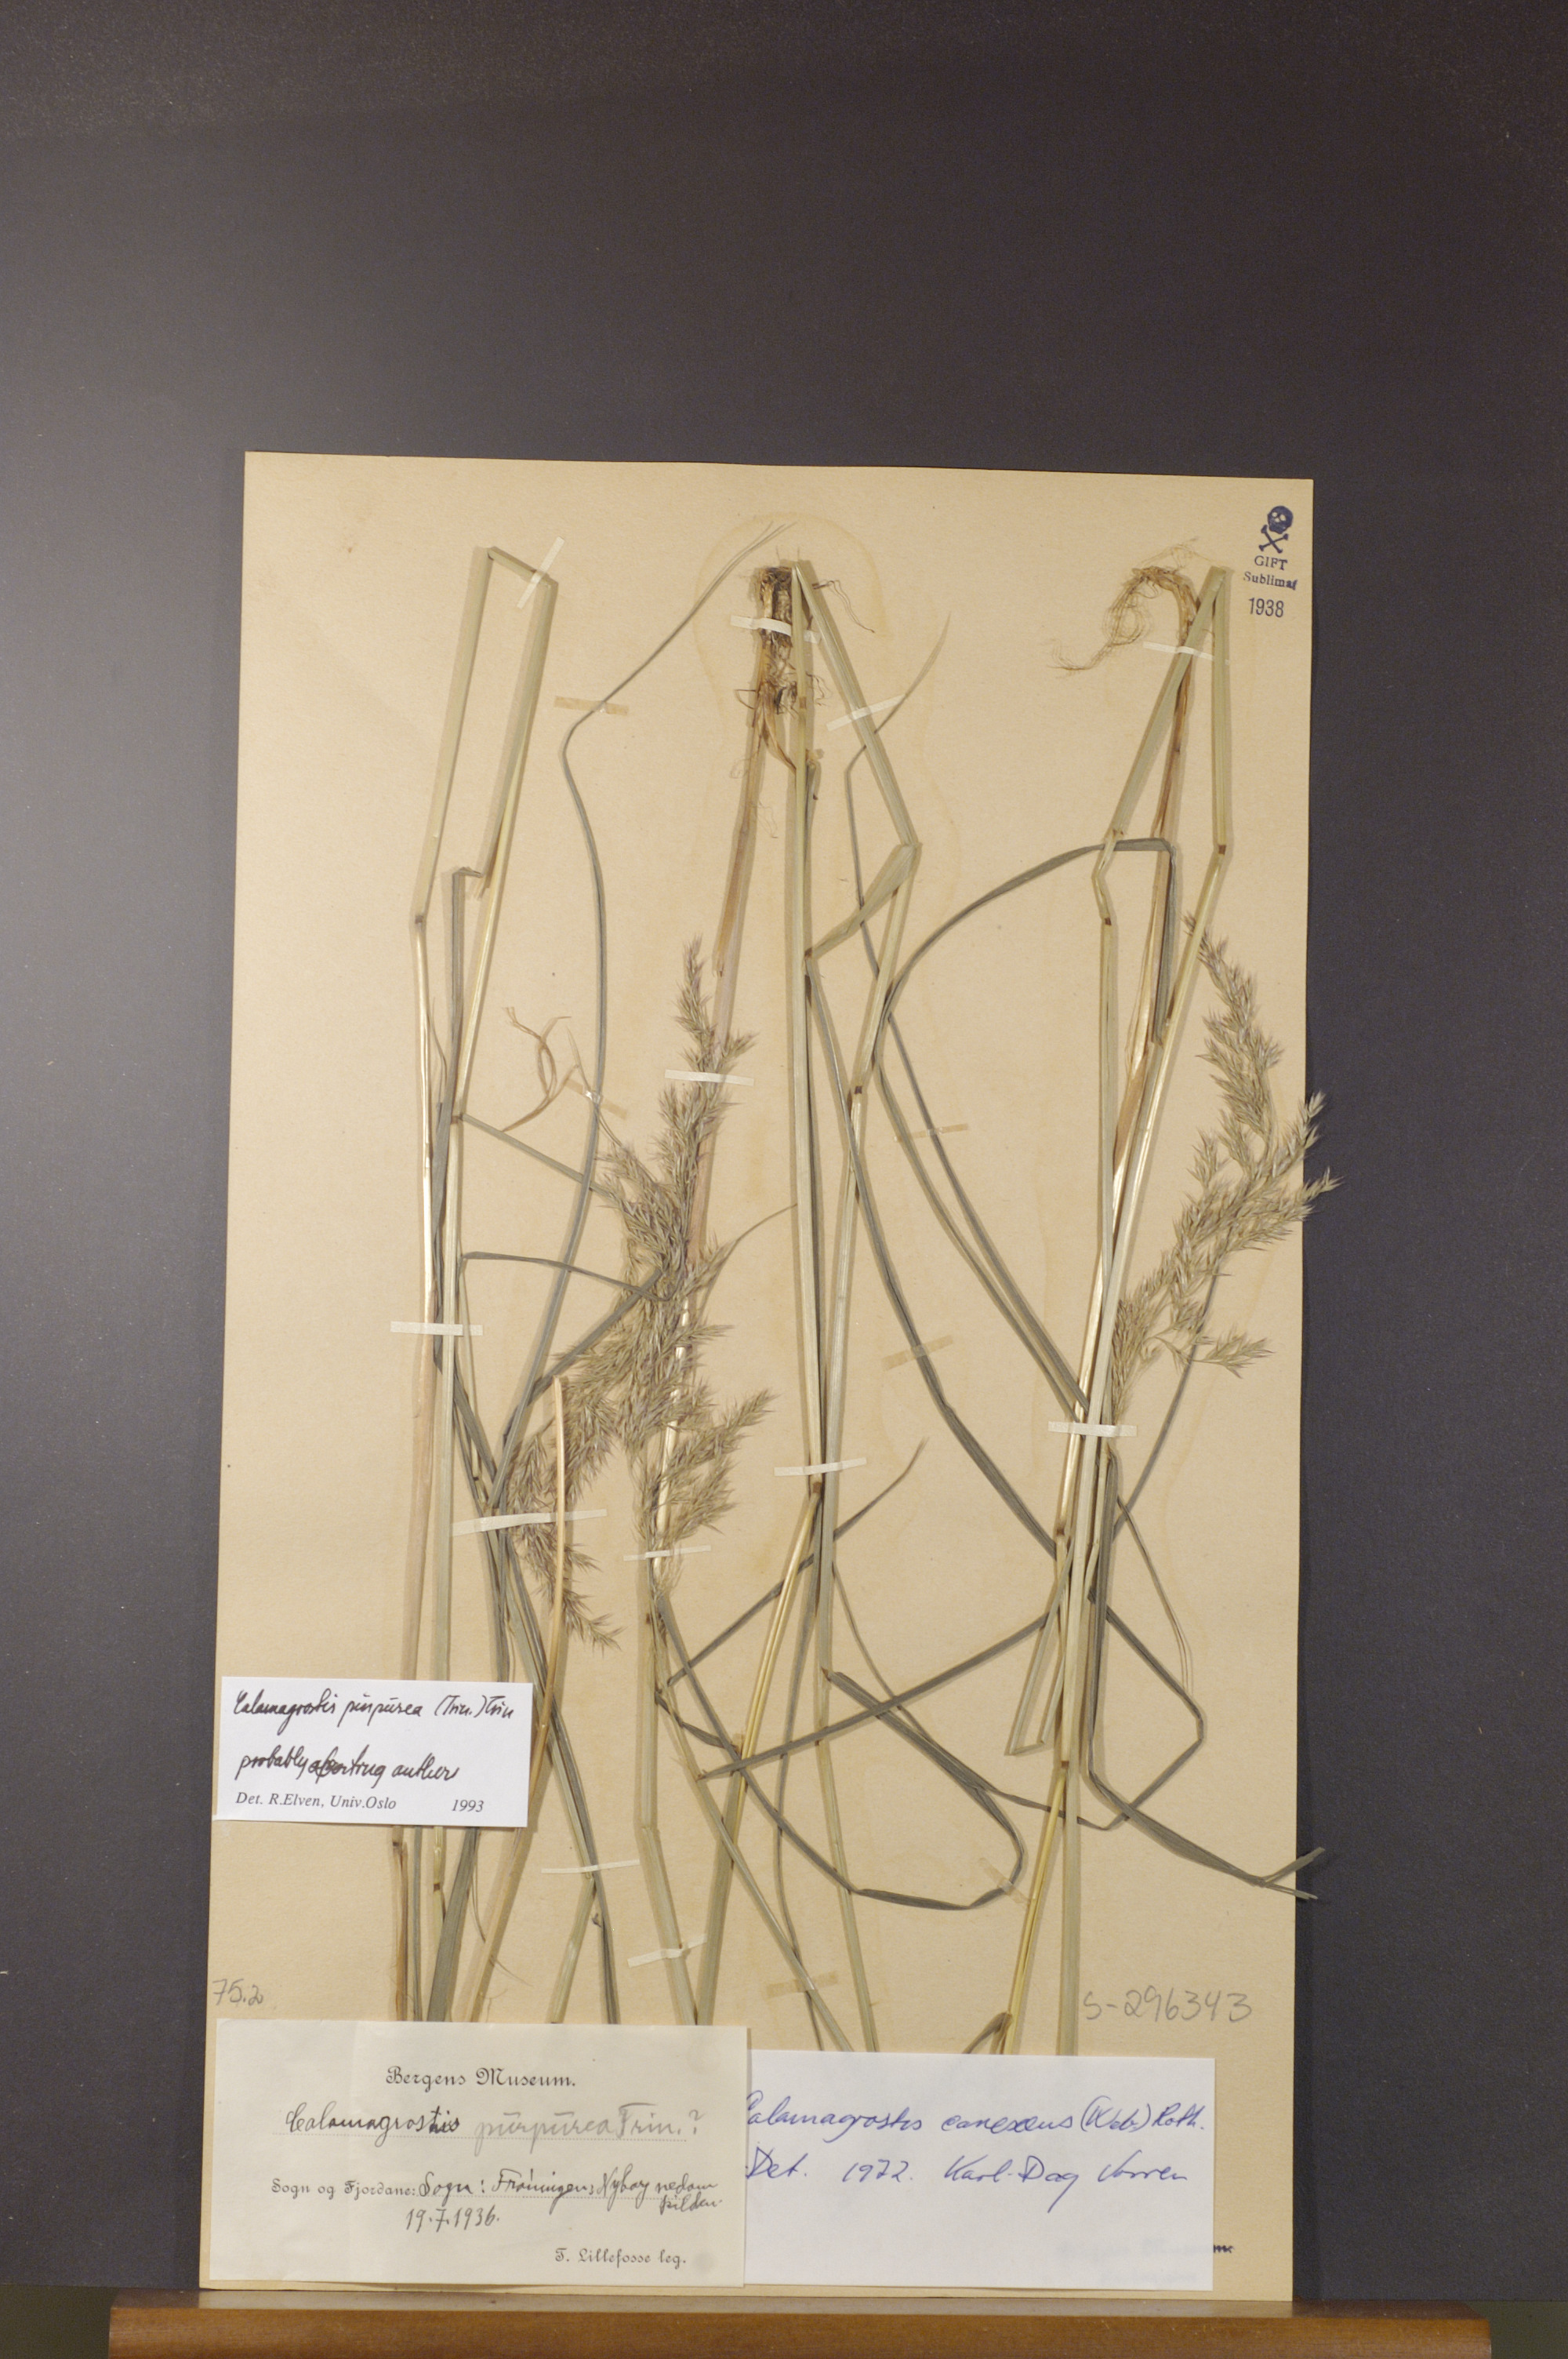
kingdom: Plantae
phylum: Tracheophyta
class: Liliopsida
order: Poales
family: Poaceae
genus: Calamagrostis
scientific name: Calamagrostis purpurea
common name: Scandinavian small-reed
